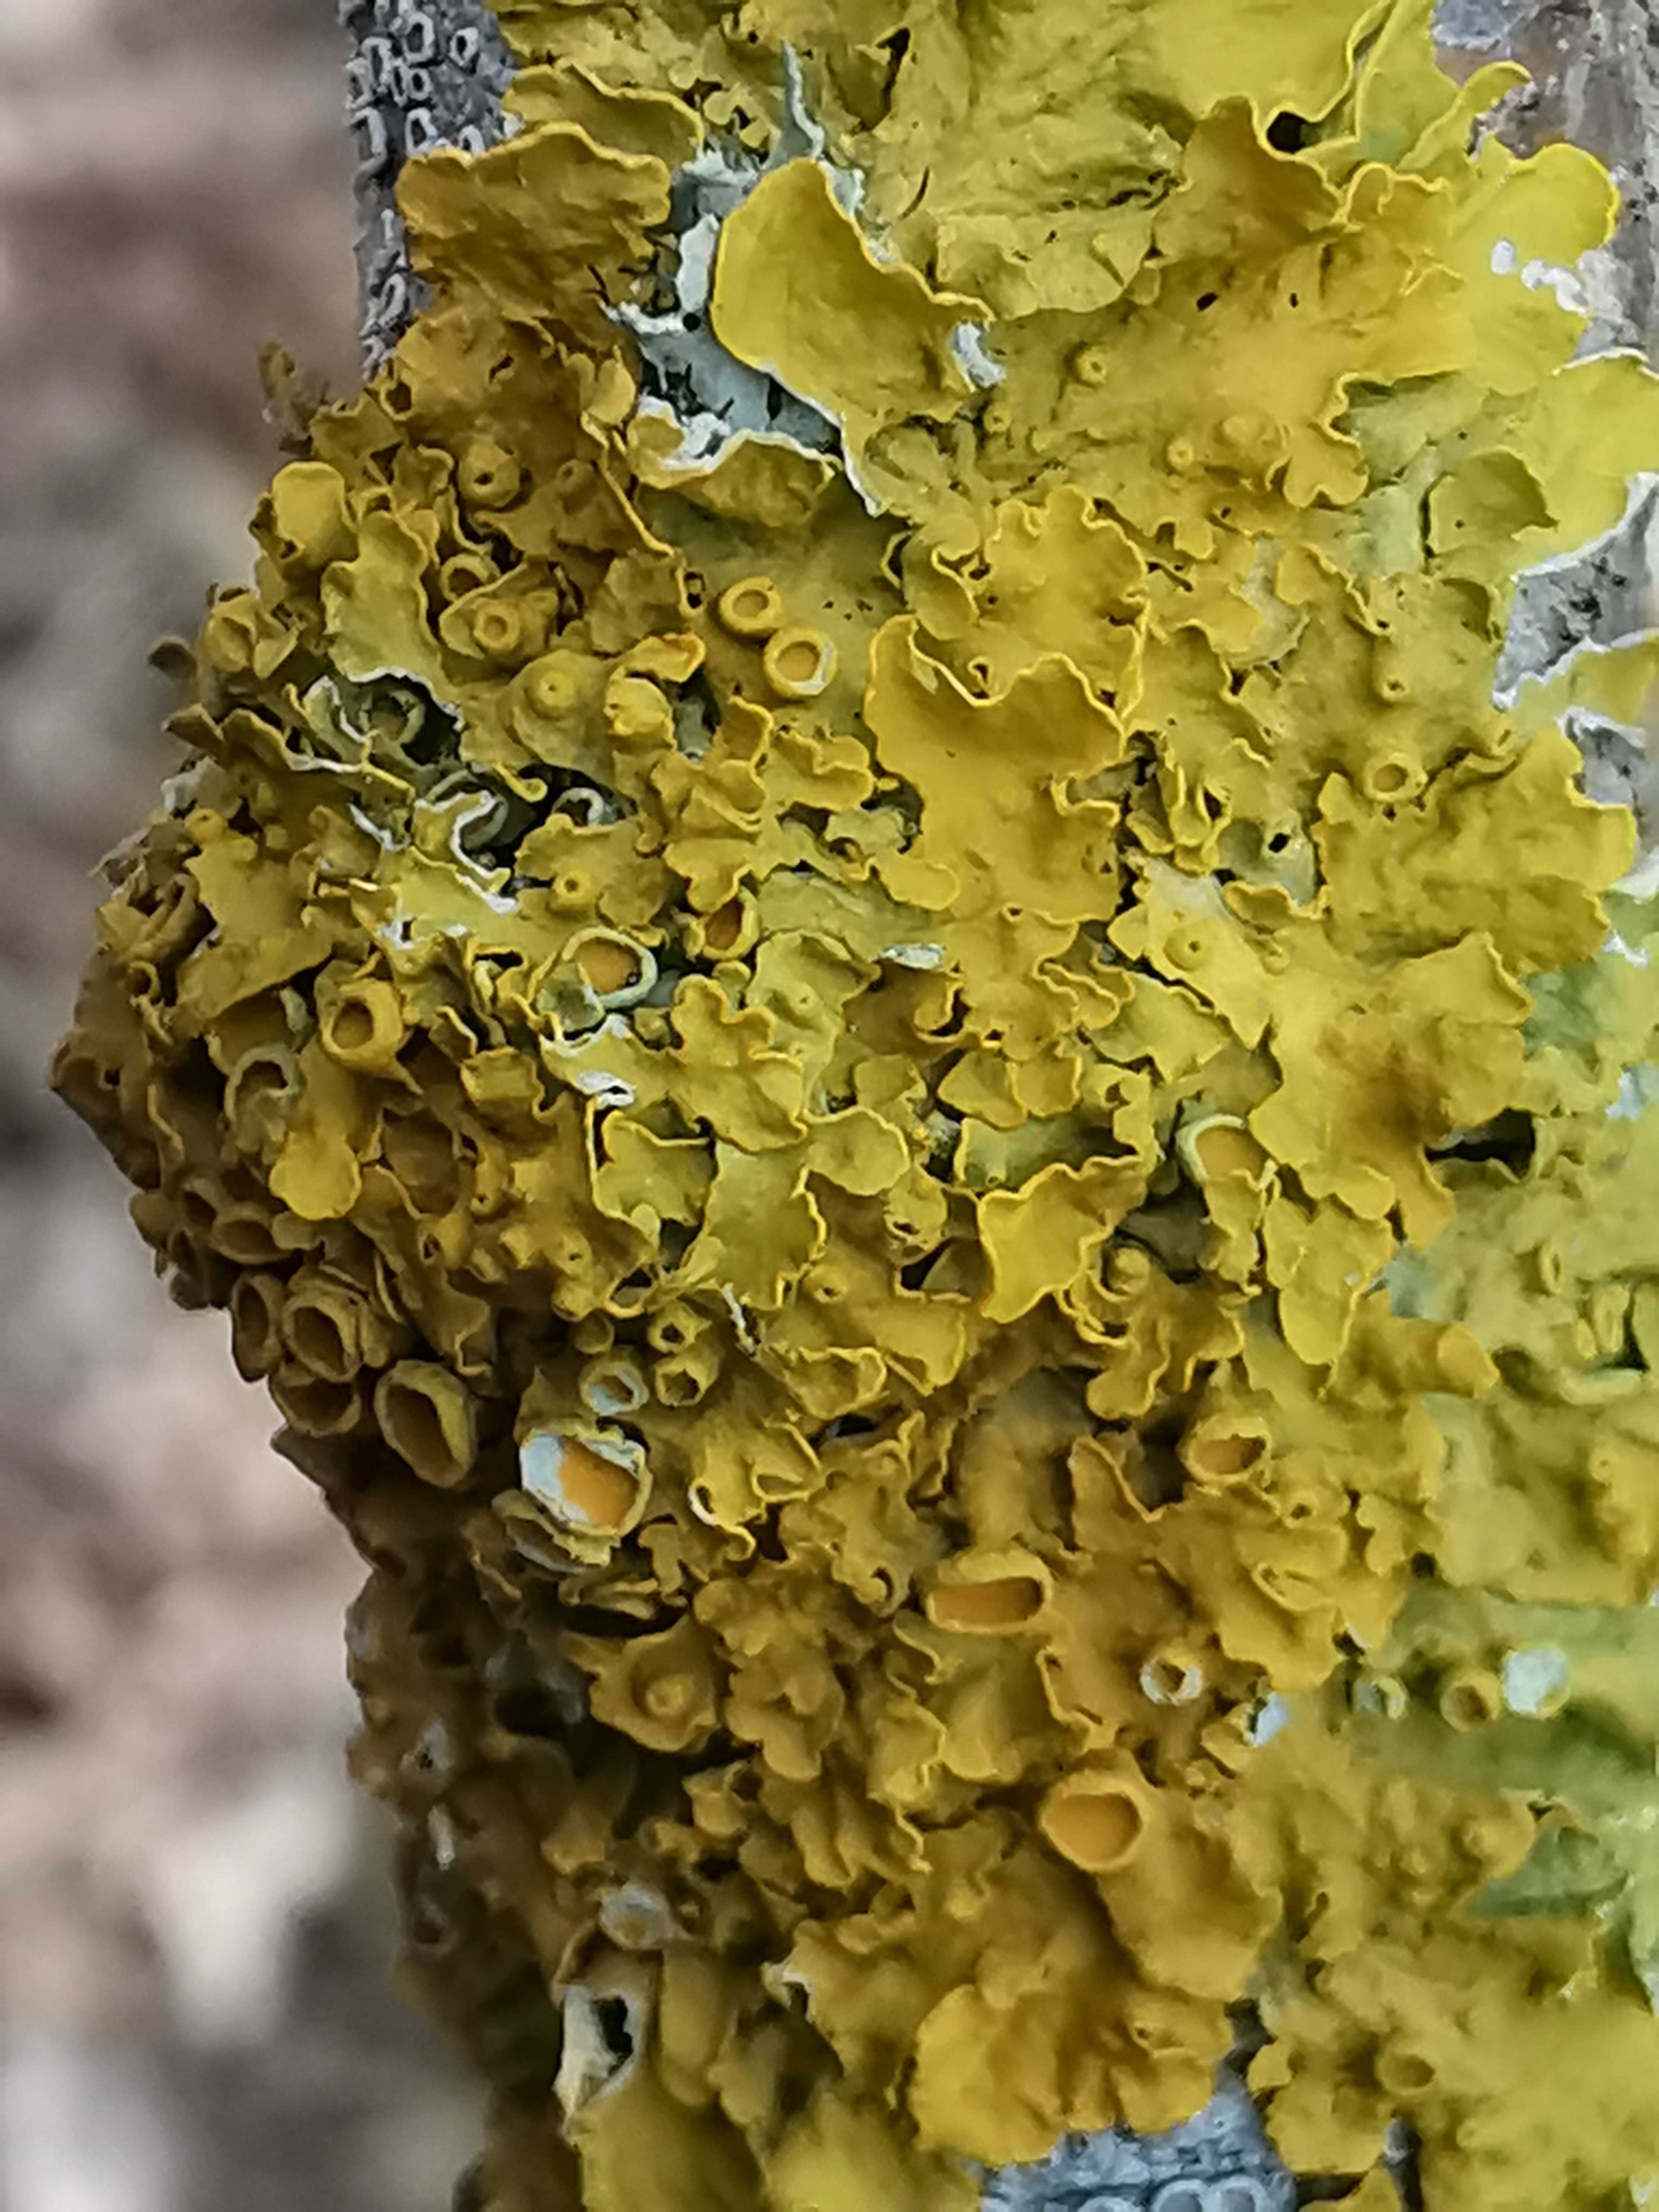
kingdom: Fungi
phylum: Ascomycota
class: Lecanoromycetes
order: Teloschistales
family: Teloschistaceae
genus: Xanthoria
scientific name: Xanthoria parietina
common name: almindelig væggelav
